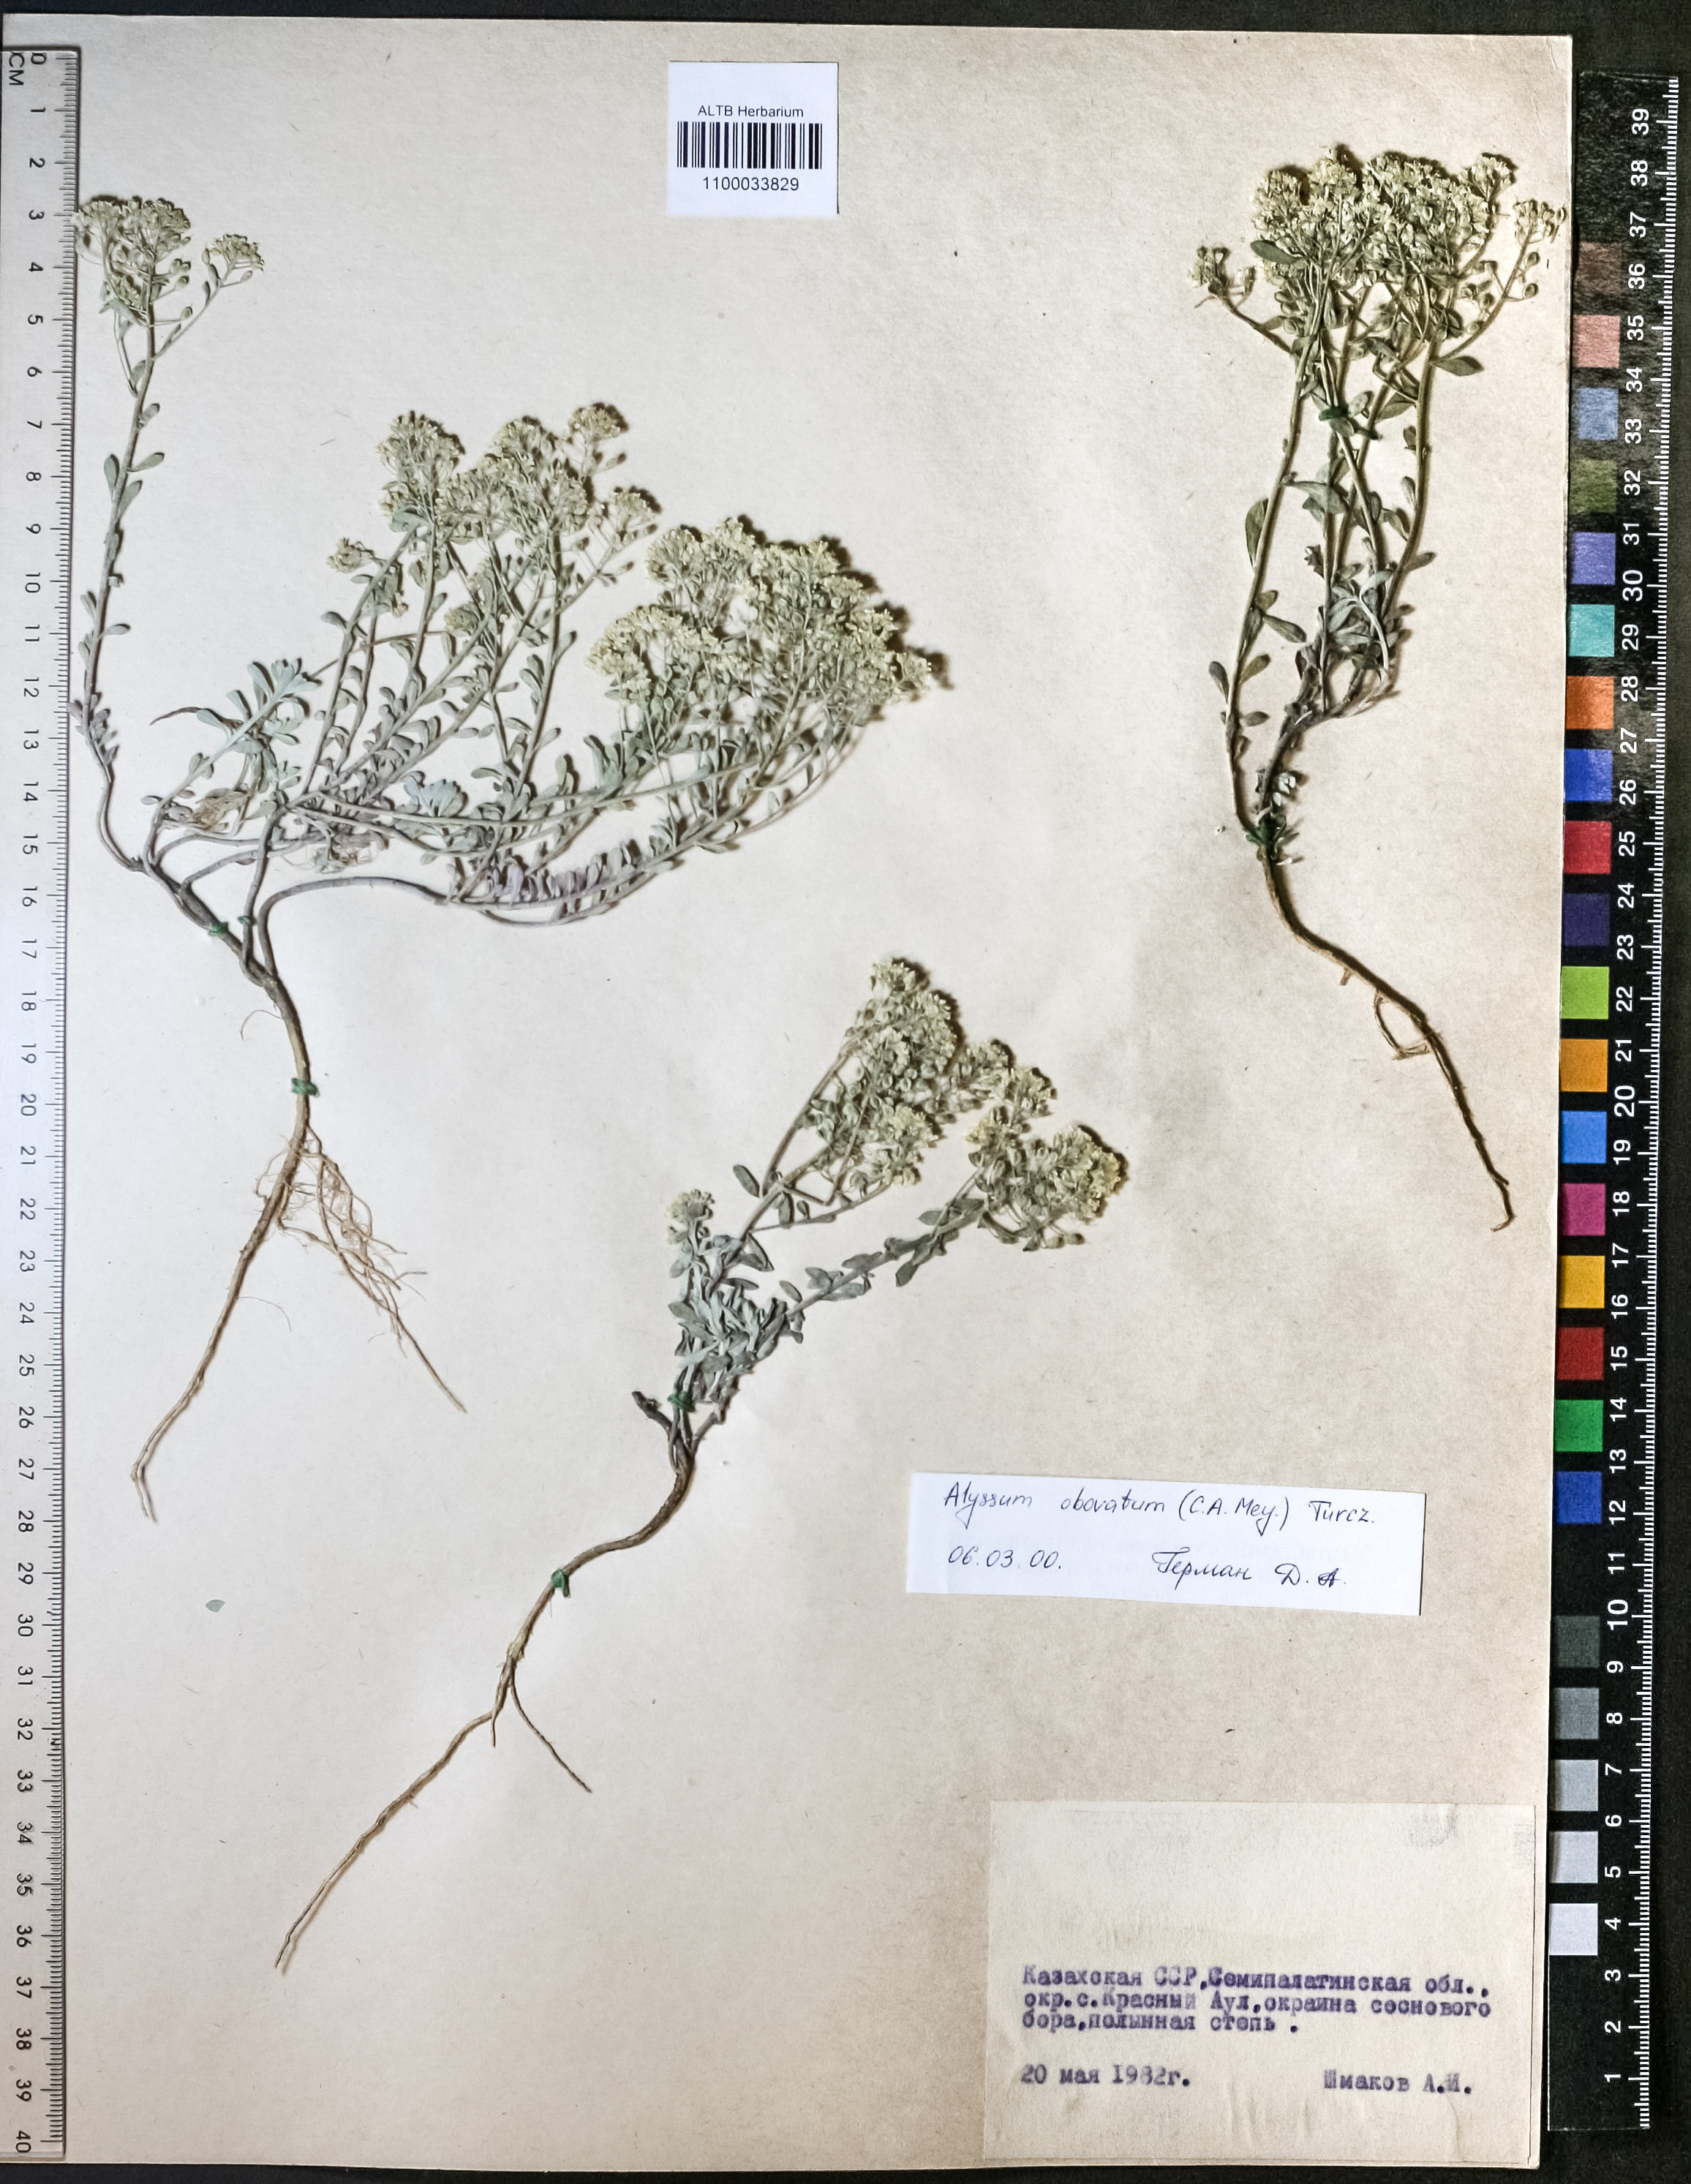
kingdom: Plantae
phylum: Tracheophyta
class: Magnoliopsida
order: Brassicales
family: Brassicaceae
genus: Odontarrhena
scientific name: Odontarrhena obovata
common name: American alyssum
